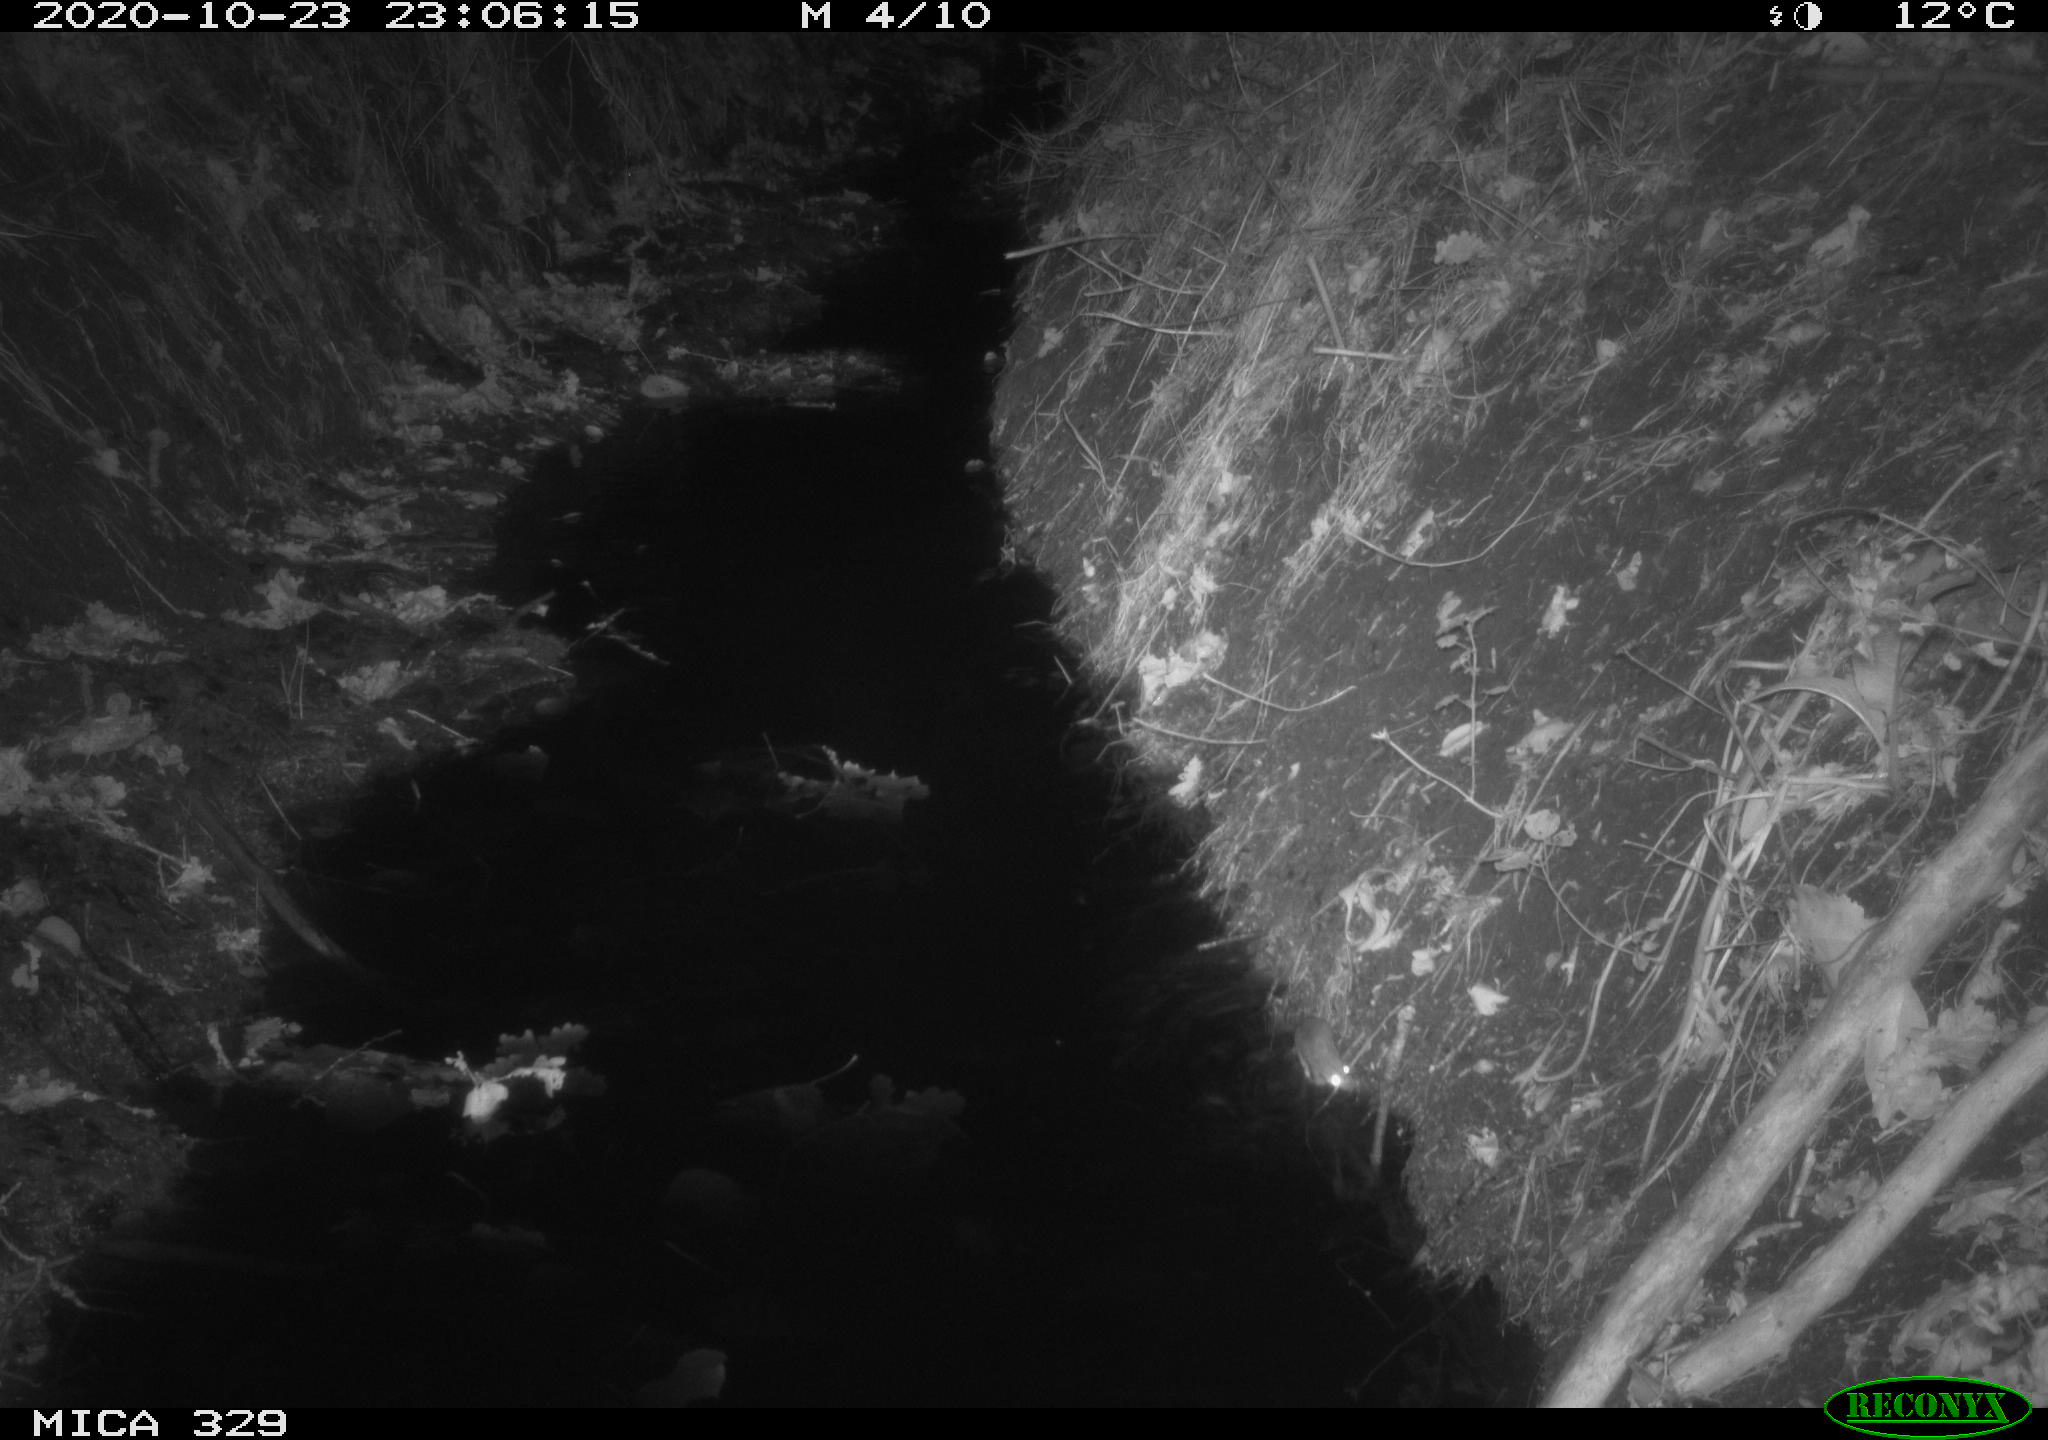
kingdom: Animalia
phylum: Chordata
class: Mammalia
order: Rodentia
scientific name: Rodentia
